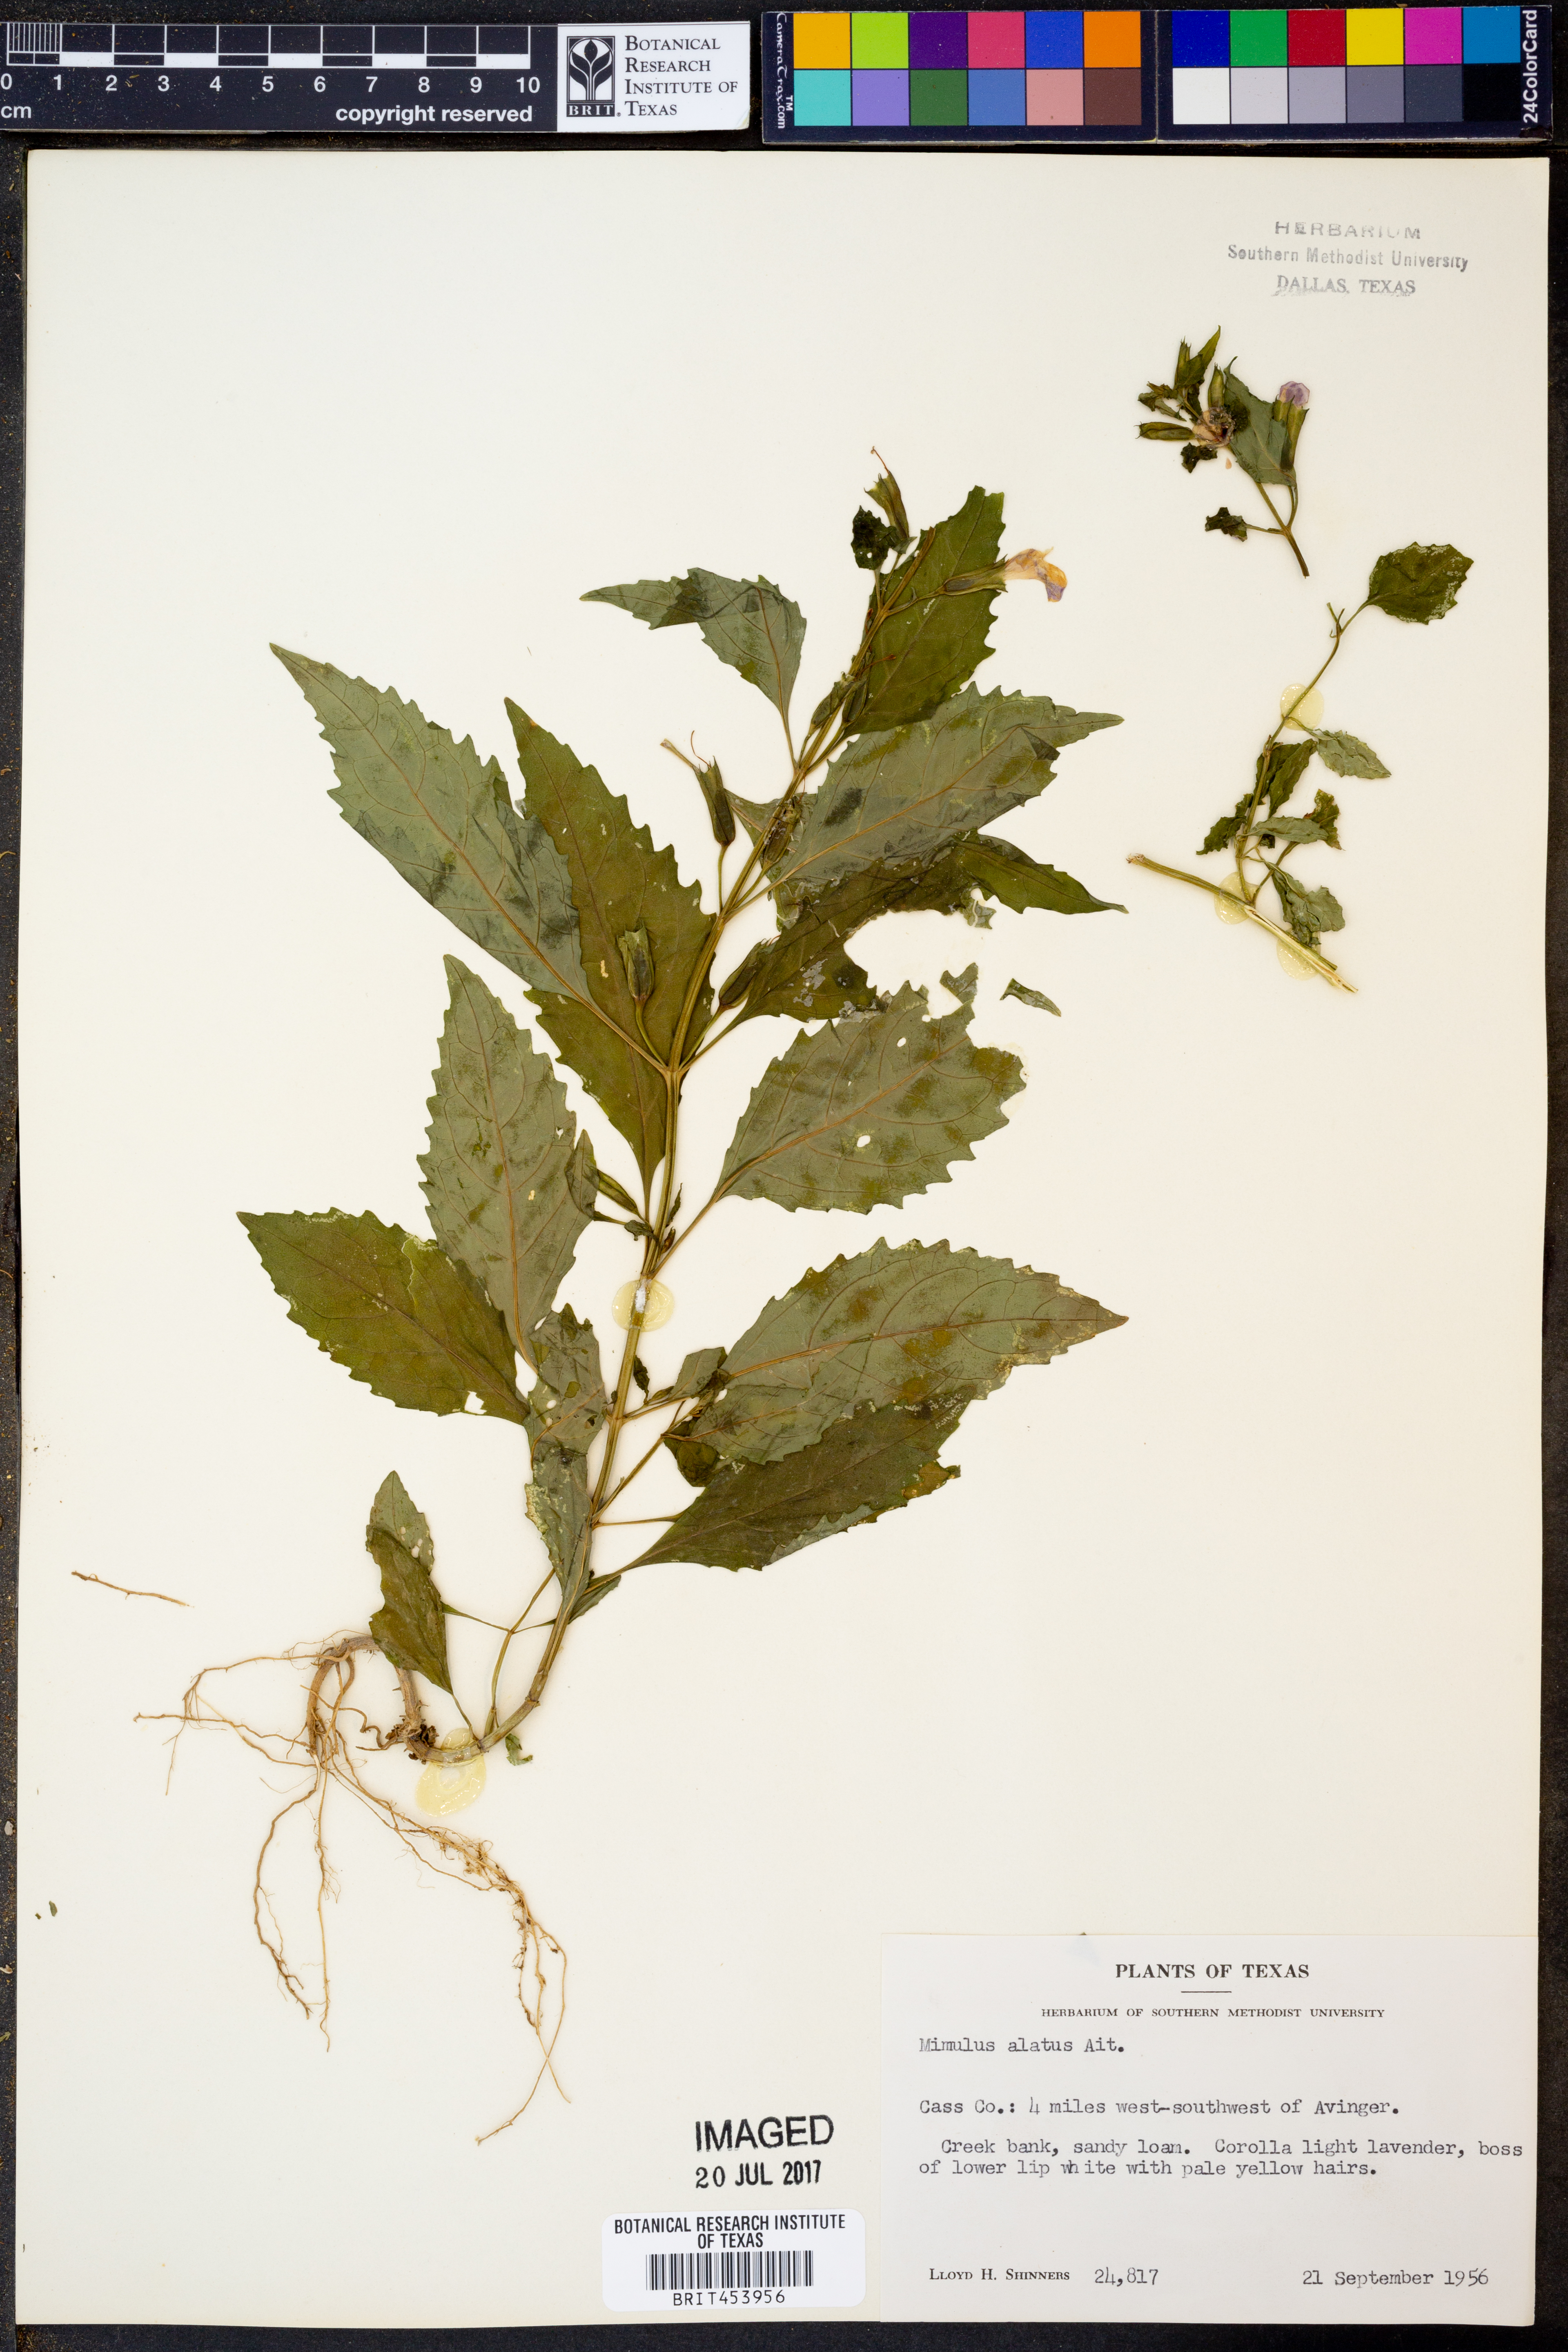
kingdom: Plantae
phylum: Tracheophyta
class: Magnoliopsida
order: Lamiales
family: Phrymaceae
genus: Mimulus
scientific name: Mimulus alatus
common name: Sharp-wing monkey-flower
